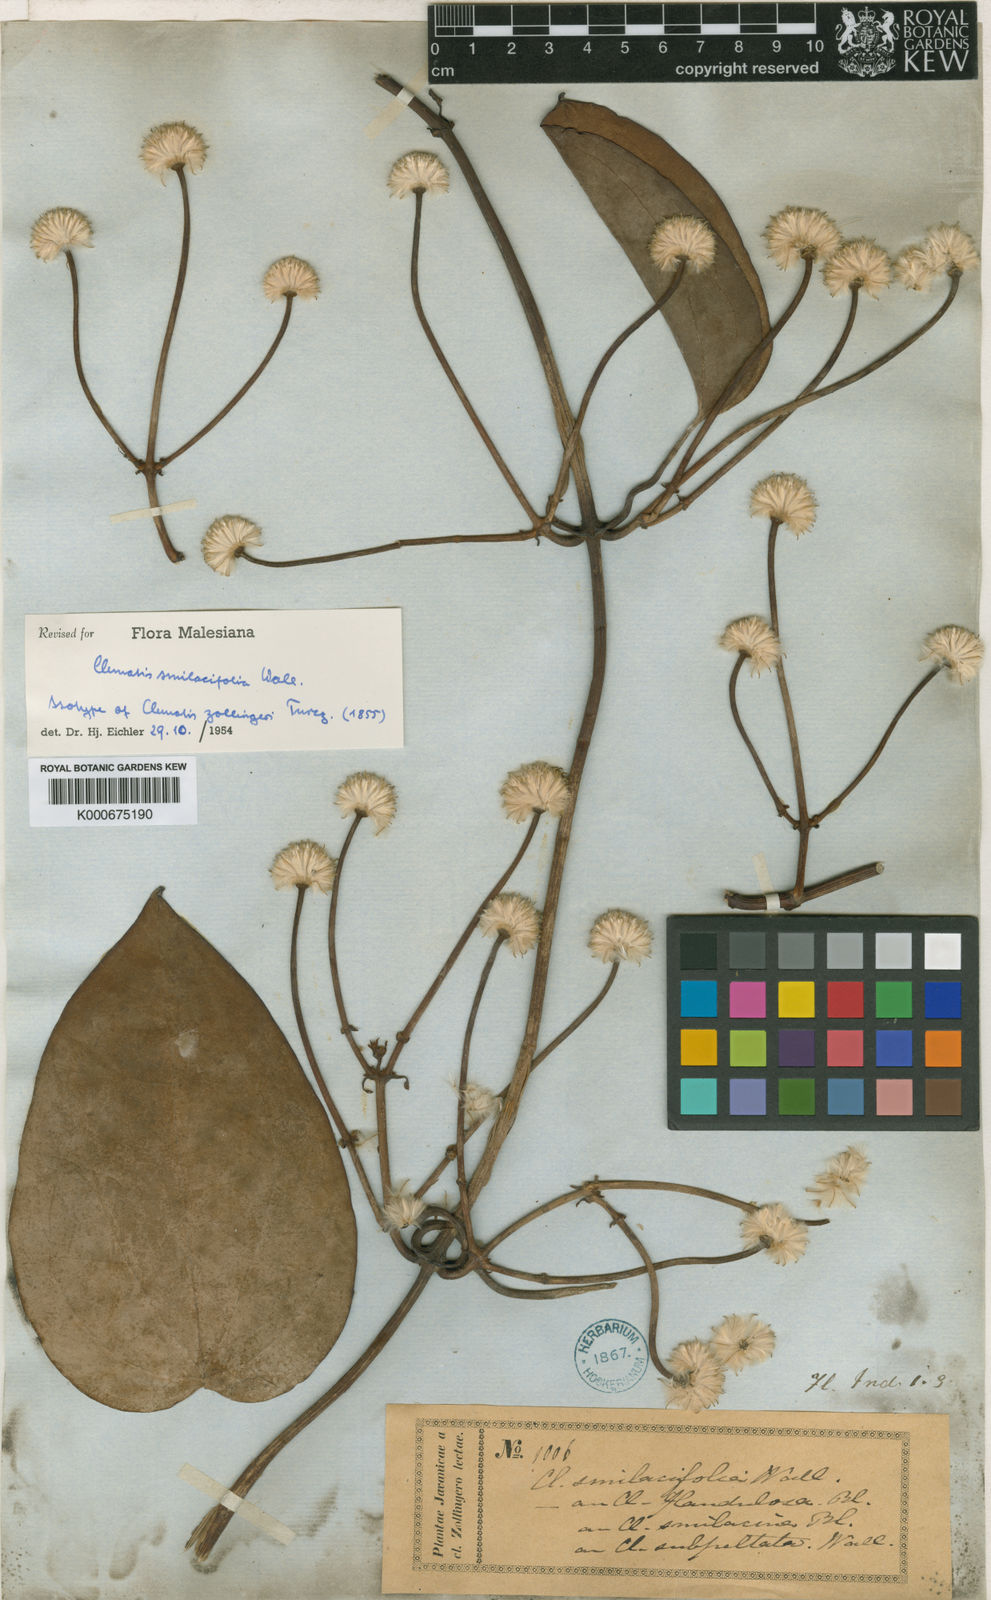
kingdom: Plantae
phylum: Tracheophyta
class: Magnoliopsida
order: Ranunculales
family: Ranunculaceae
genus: Clematis
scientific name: Clematis smilacifolia
